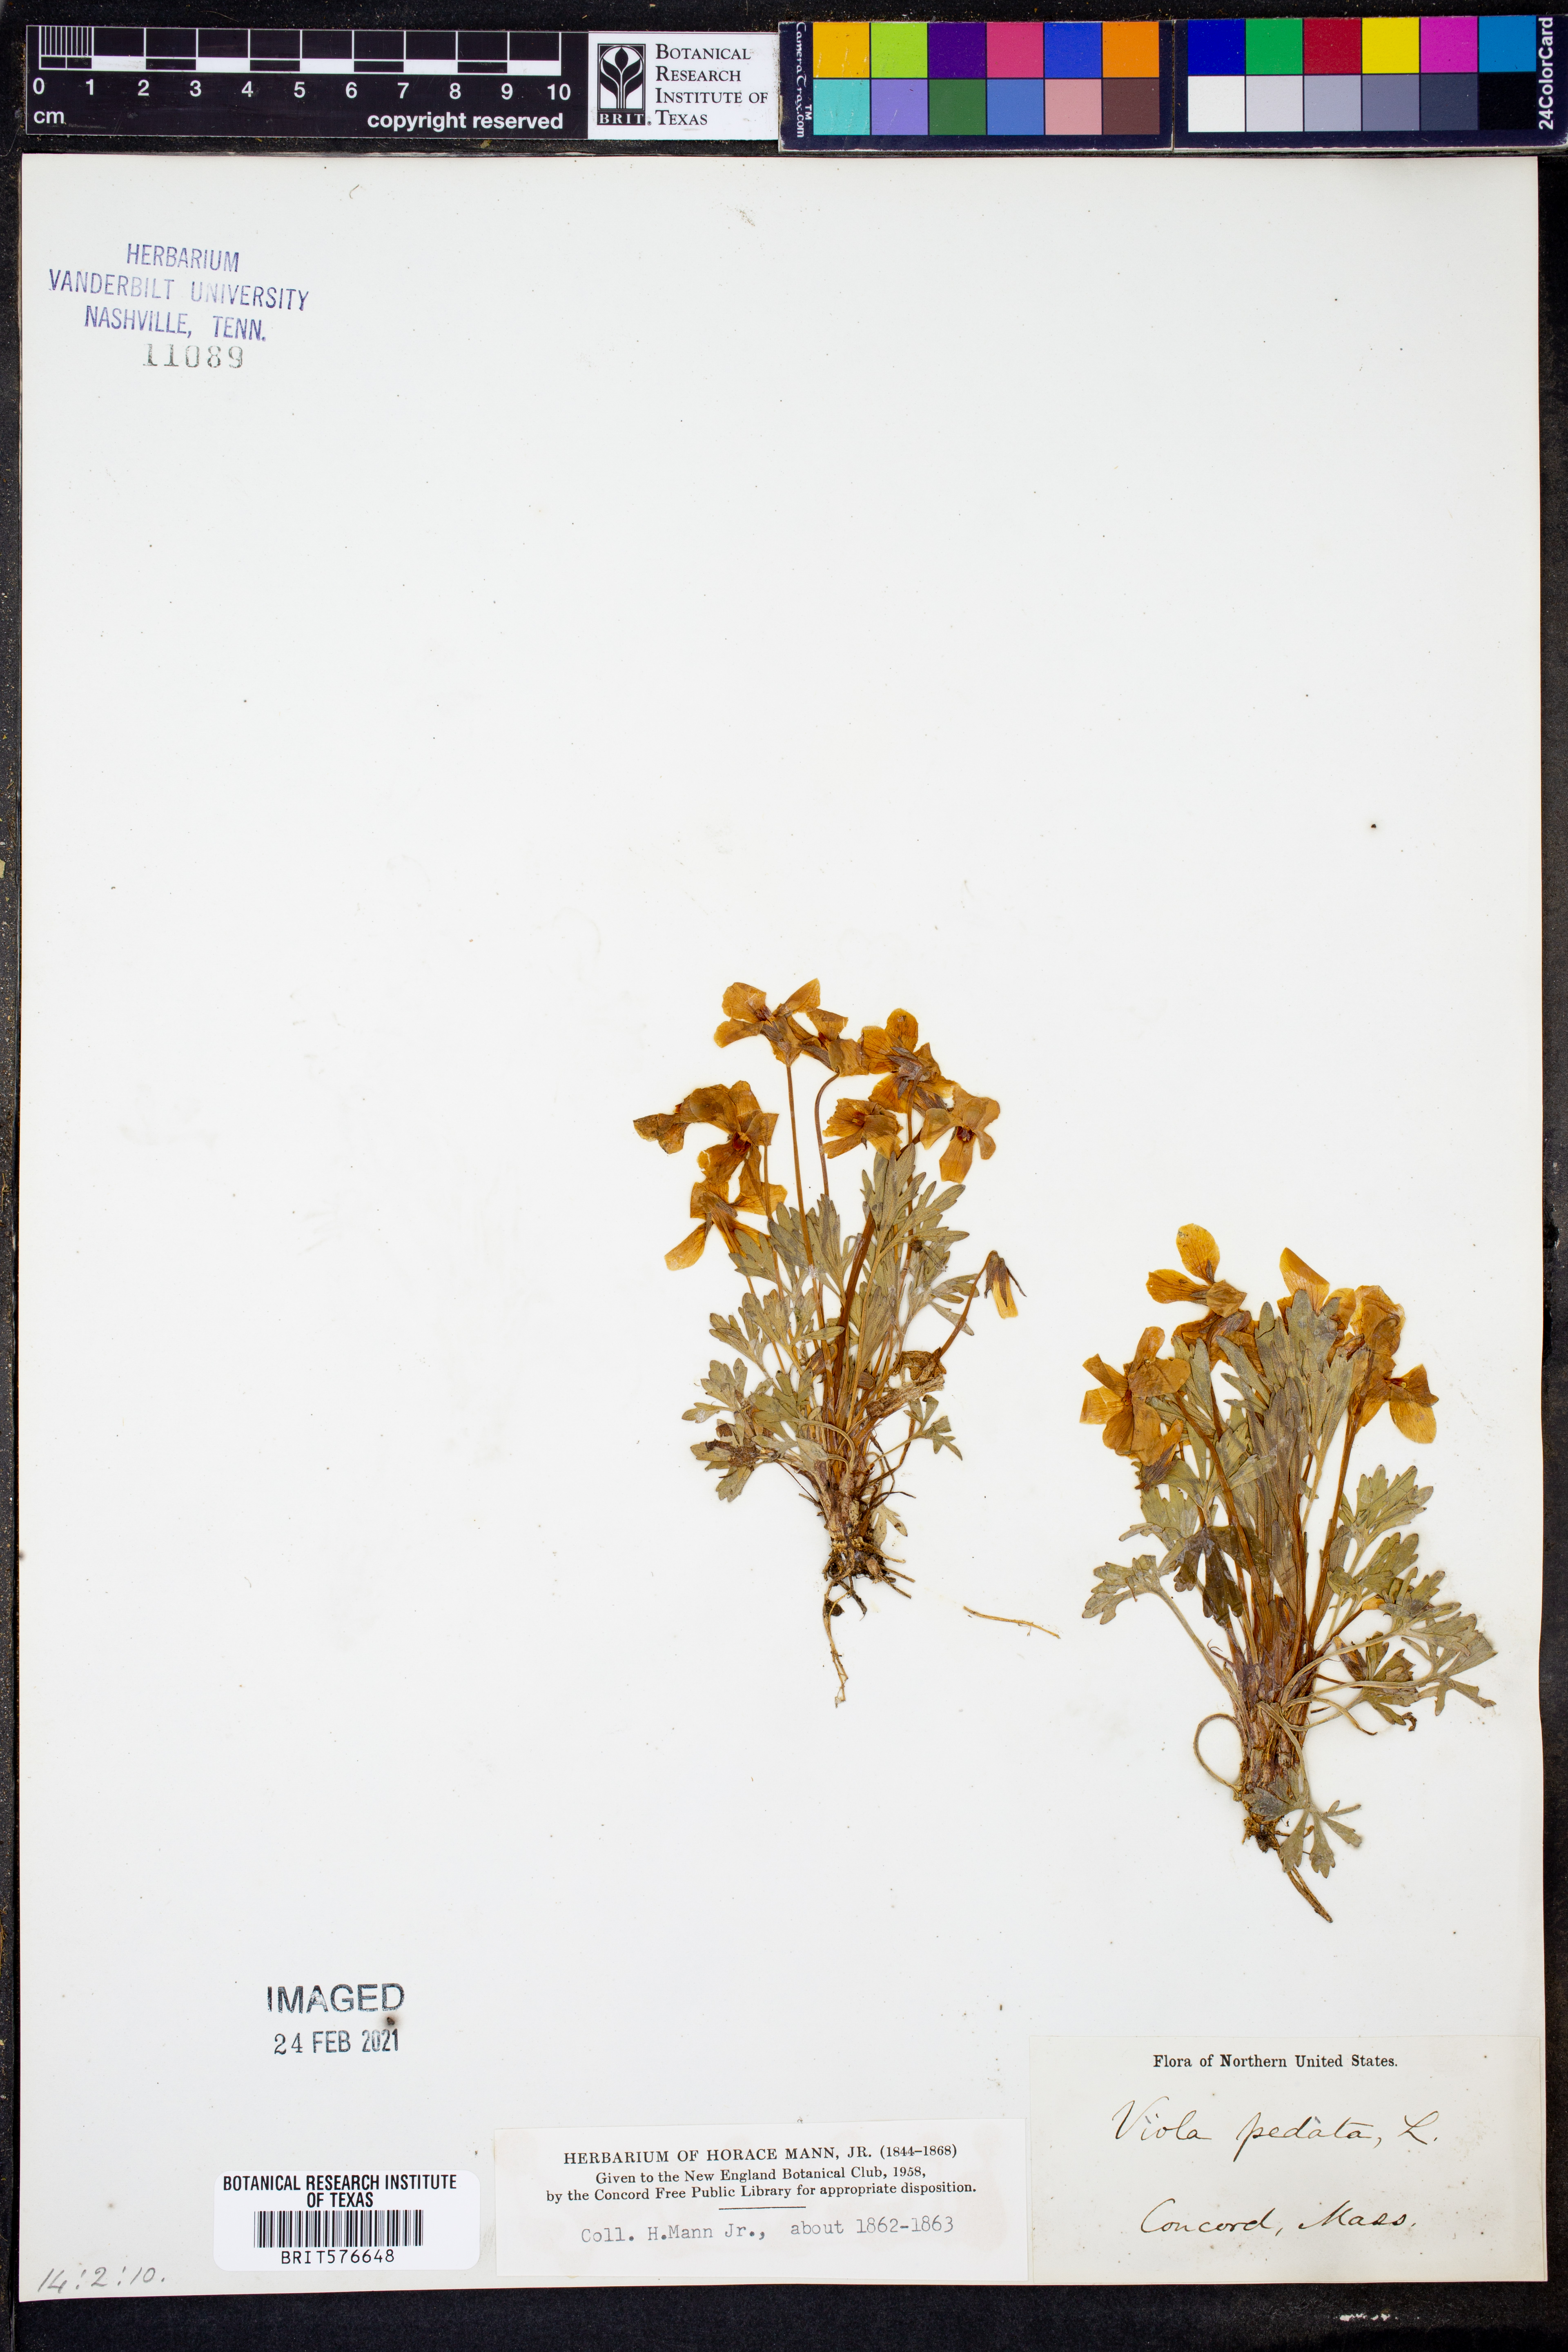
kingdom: Plantae
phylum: Tracheophyta
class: Magnoliopsida
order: Malpighiales
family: Violaceae
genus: Viola
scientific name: Viola pedata
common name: Pansy violet
